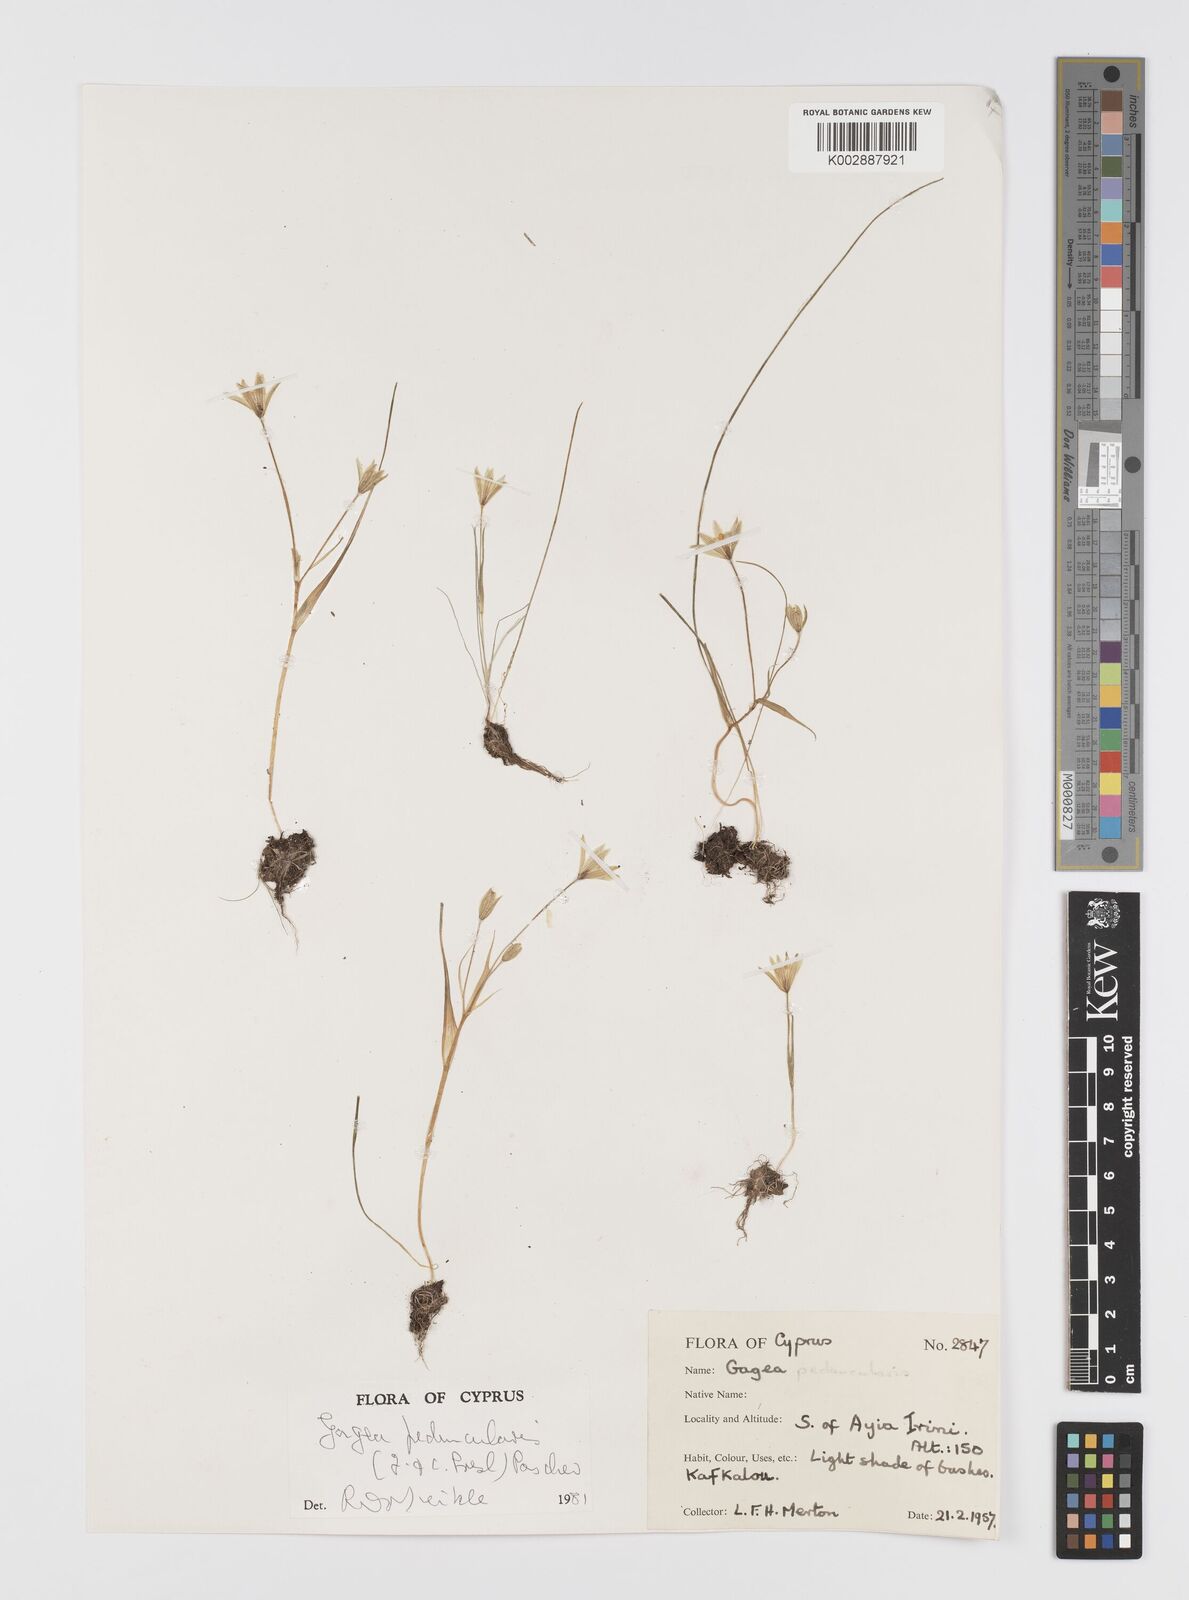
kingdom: Plantae
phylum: Tracheophyta
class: Liliopsida
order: Liliales
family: Liliaceae
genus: Gagea
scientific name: Gagea peduncularis
